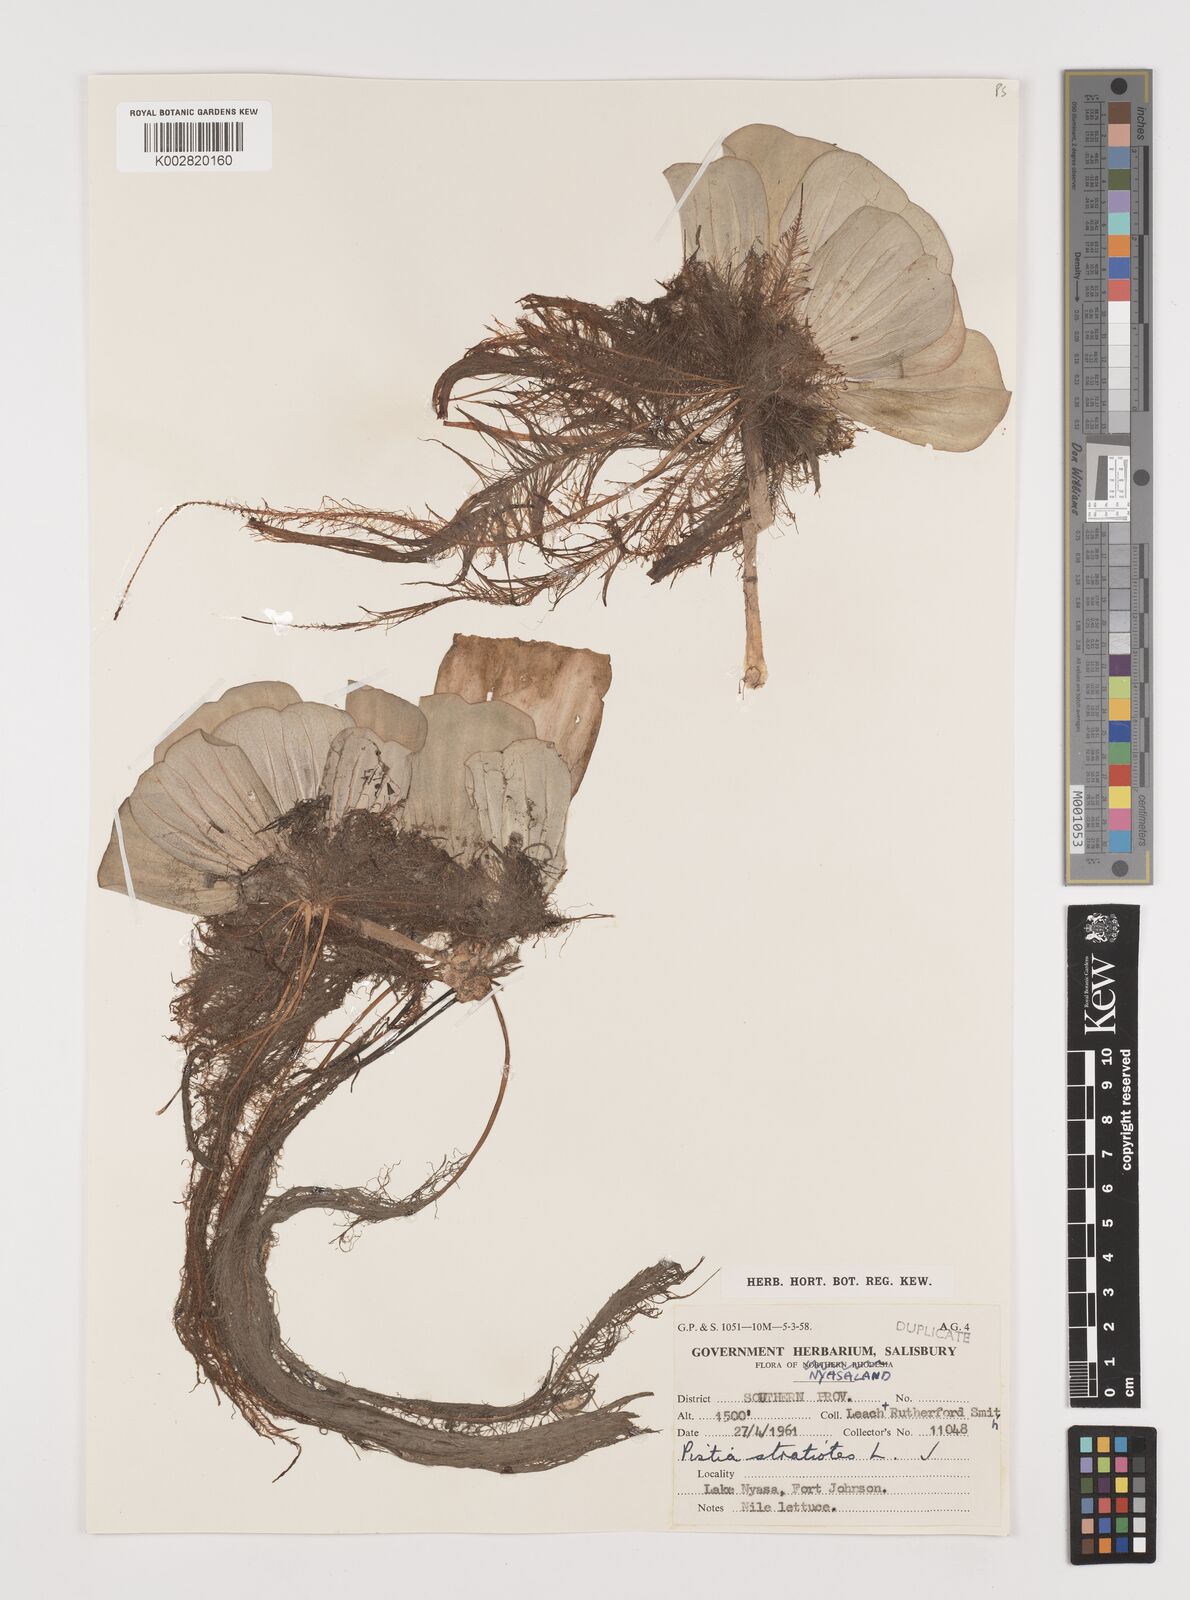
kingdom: Plantae
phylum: Tracheophyta
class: Liliopsida
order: Alismatales
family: Araceae
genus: Pistia
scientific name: Pistia stratiotes
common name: Water lettuce
